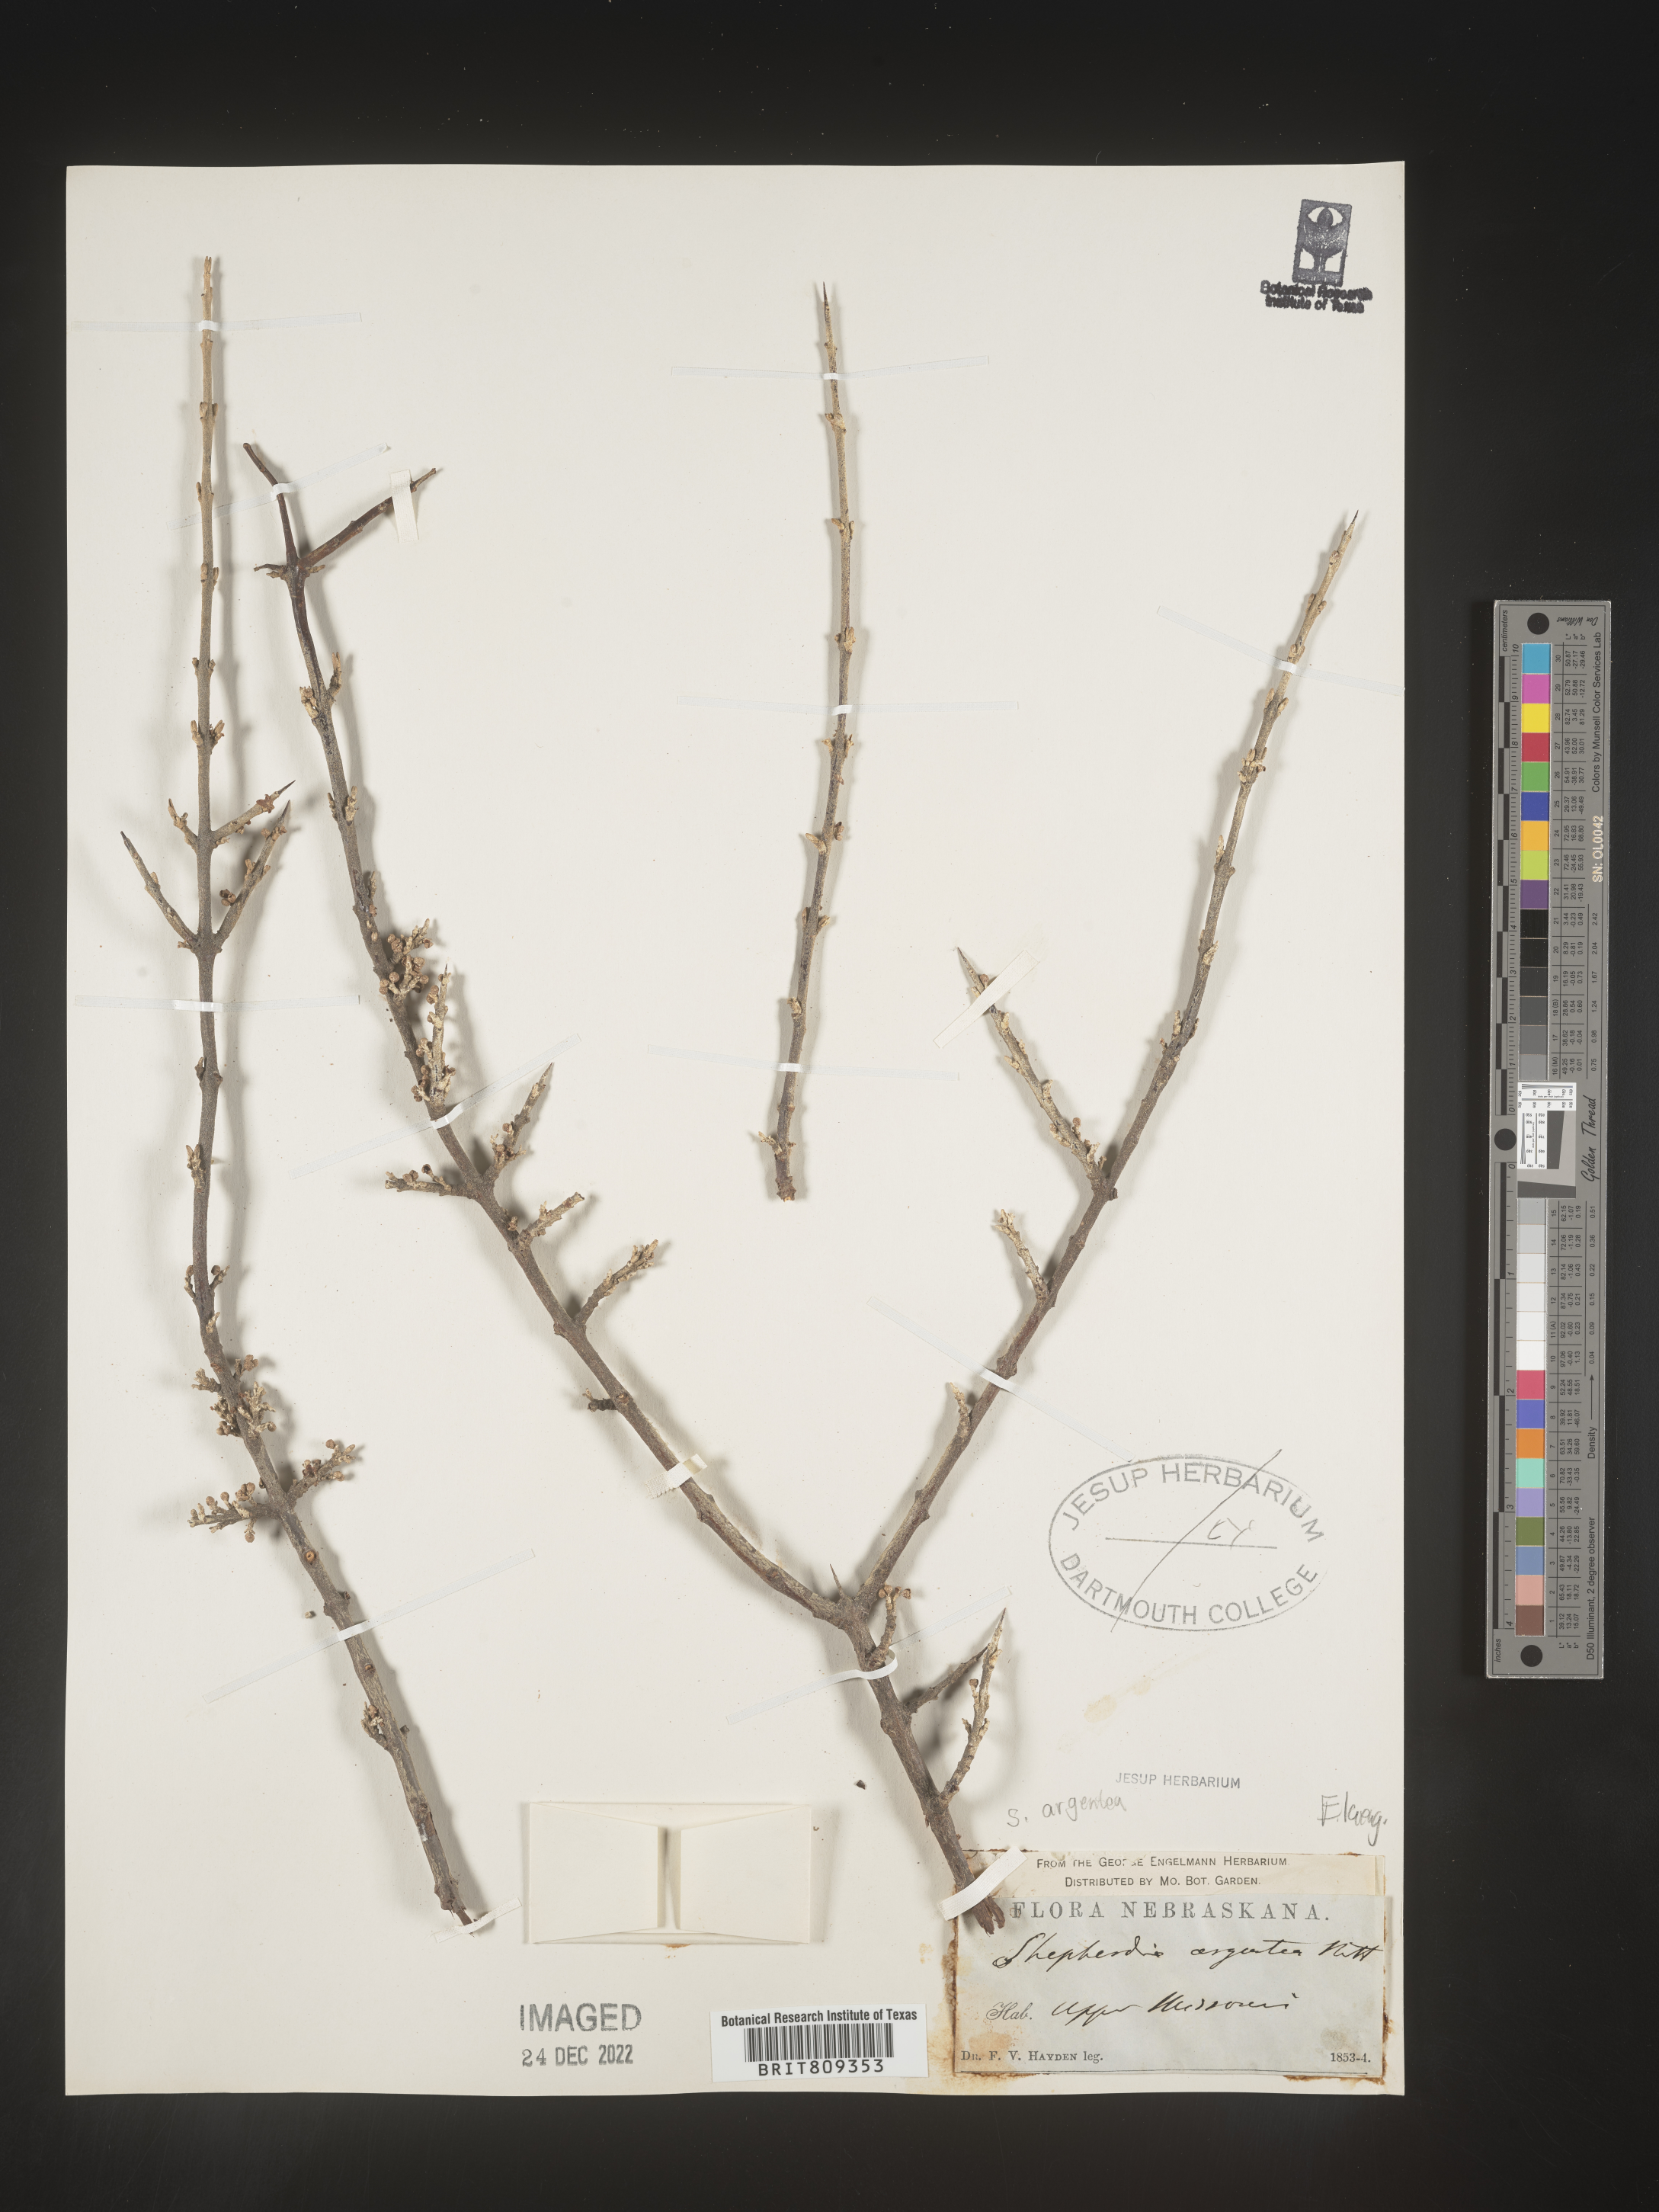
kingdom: Plantae
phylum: Tracheophyta
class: Magnoliopsida
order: Rosales
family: Elaeagnaceae
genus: Shepherdia
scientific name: Shepherdia argentea
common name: Silver buffaloberry
